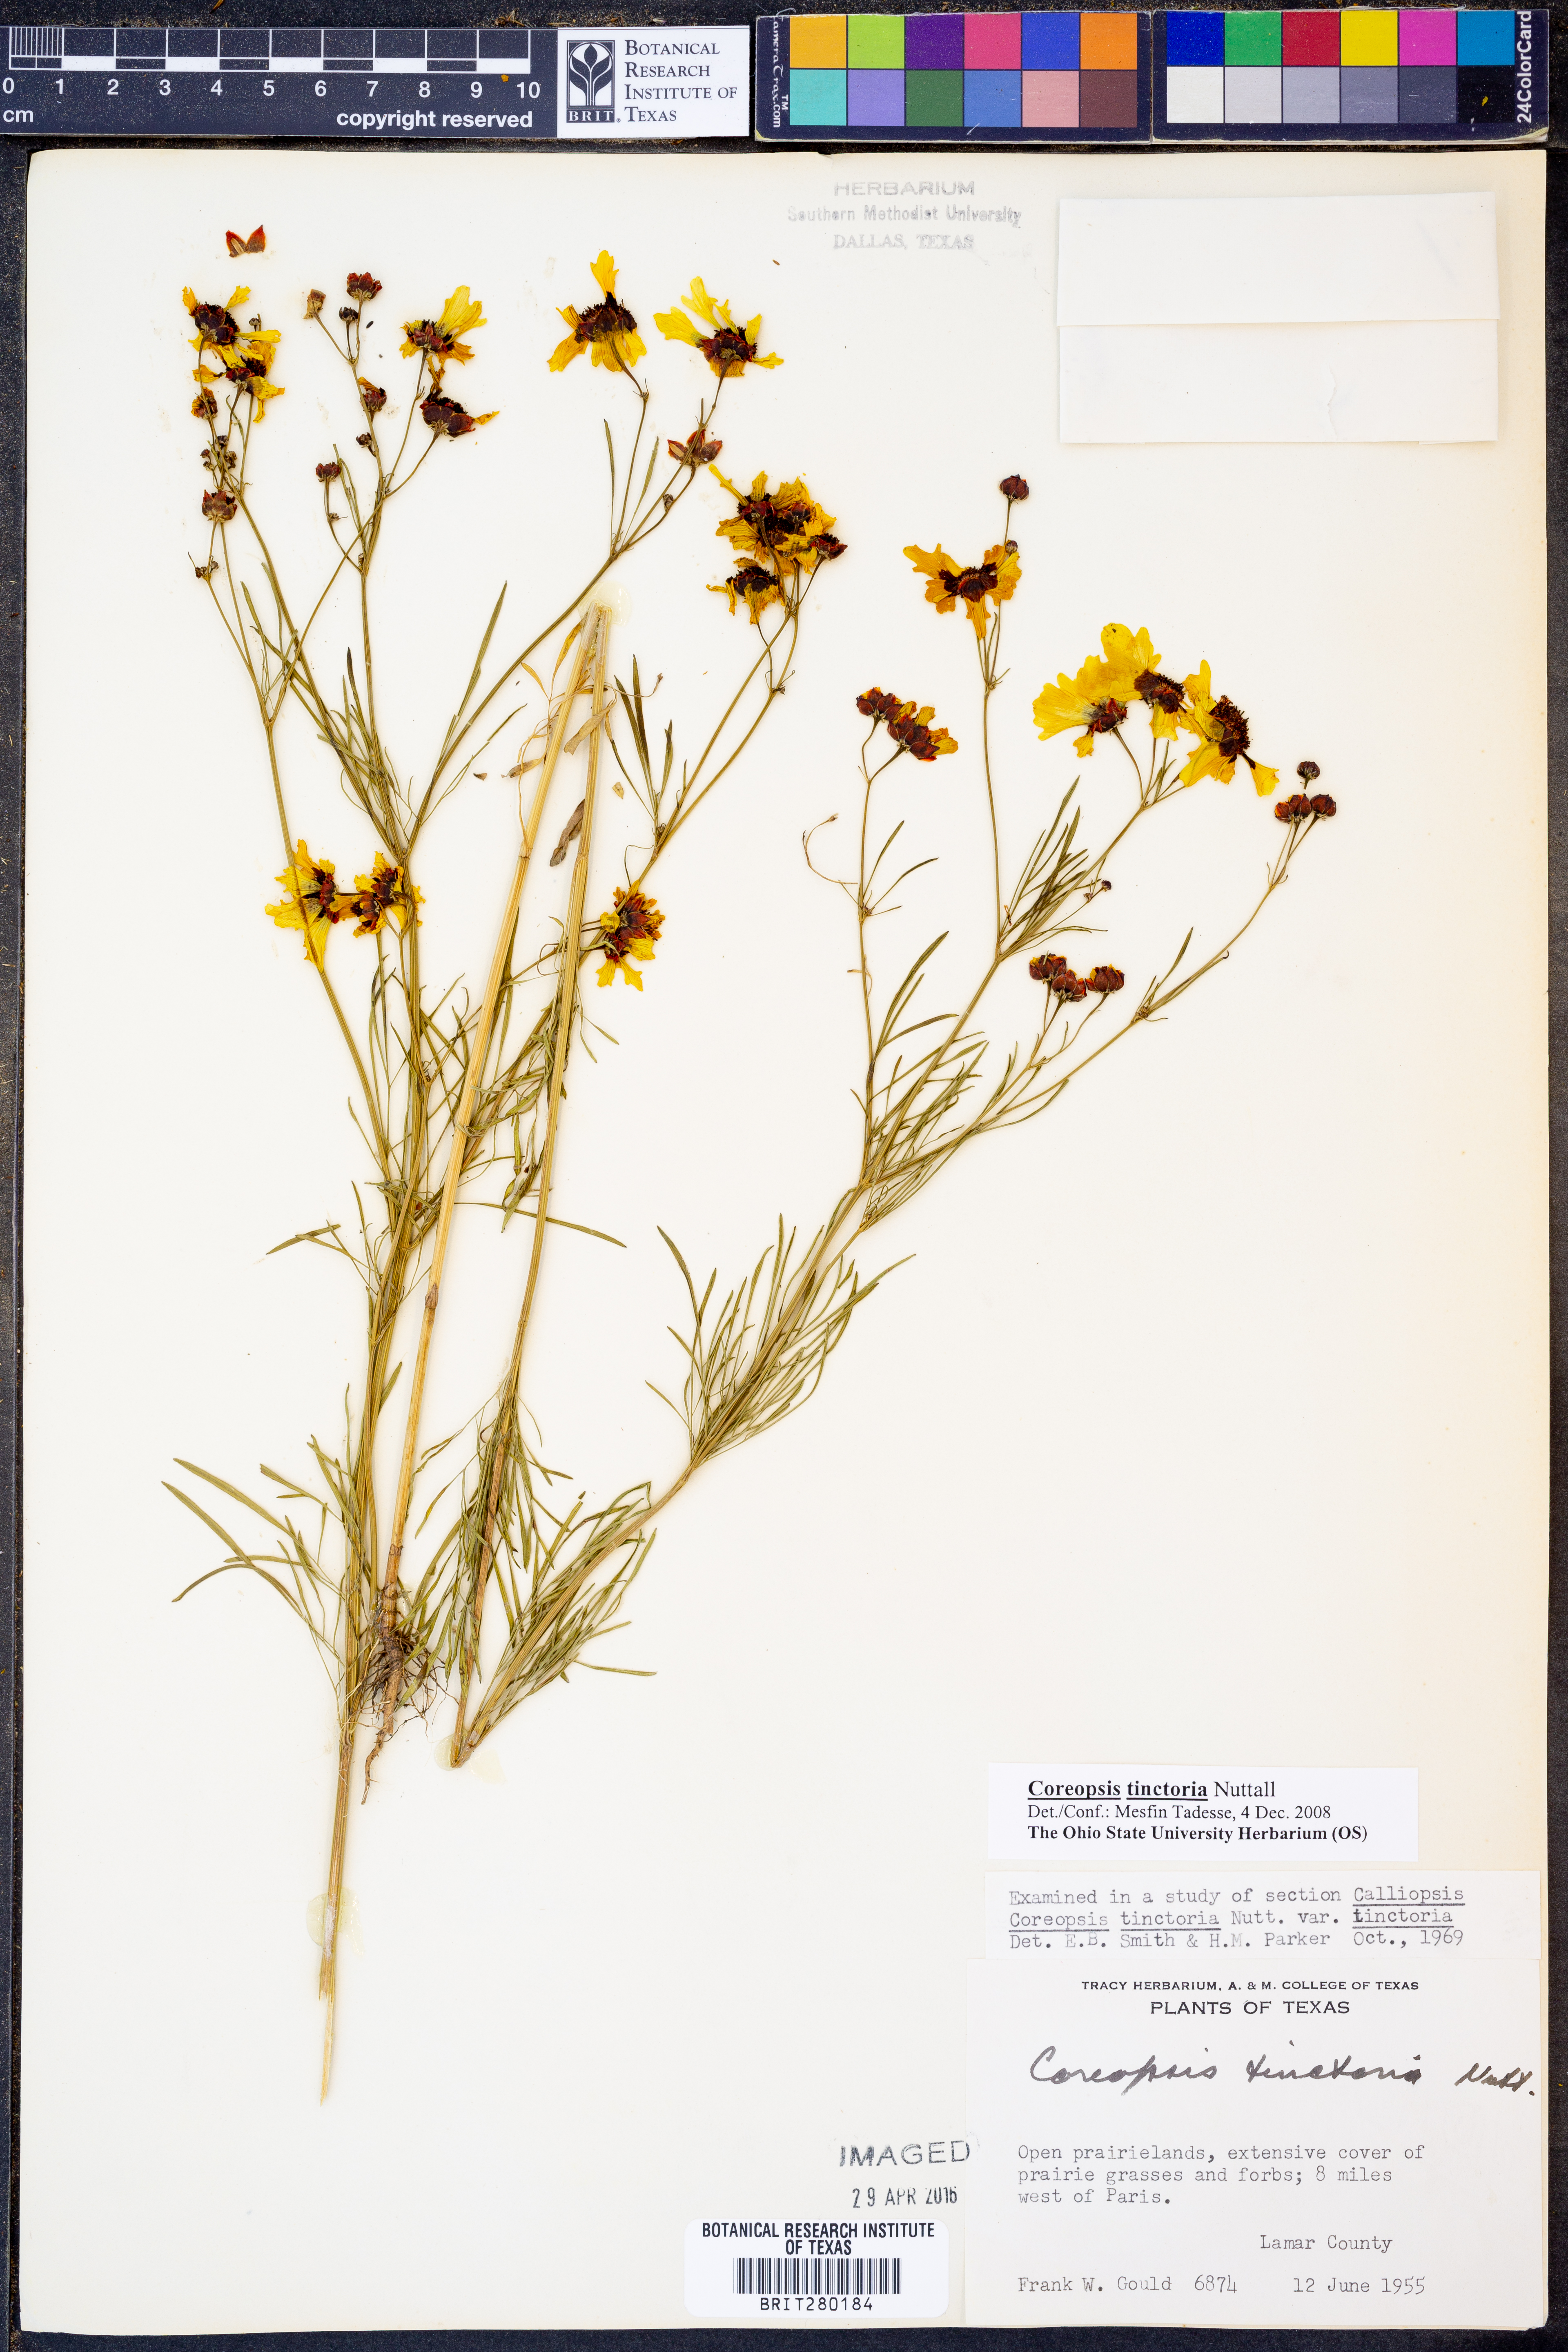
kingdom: Plantae
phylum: Tracheophyta
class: Magnoliopsida
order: Asterales
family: Asteraceae
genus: Coreopsis
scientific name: Coreopsis tinctoria
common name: Garden tickseed
